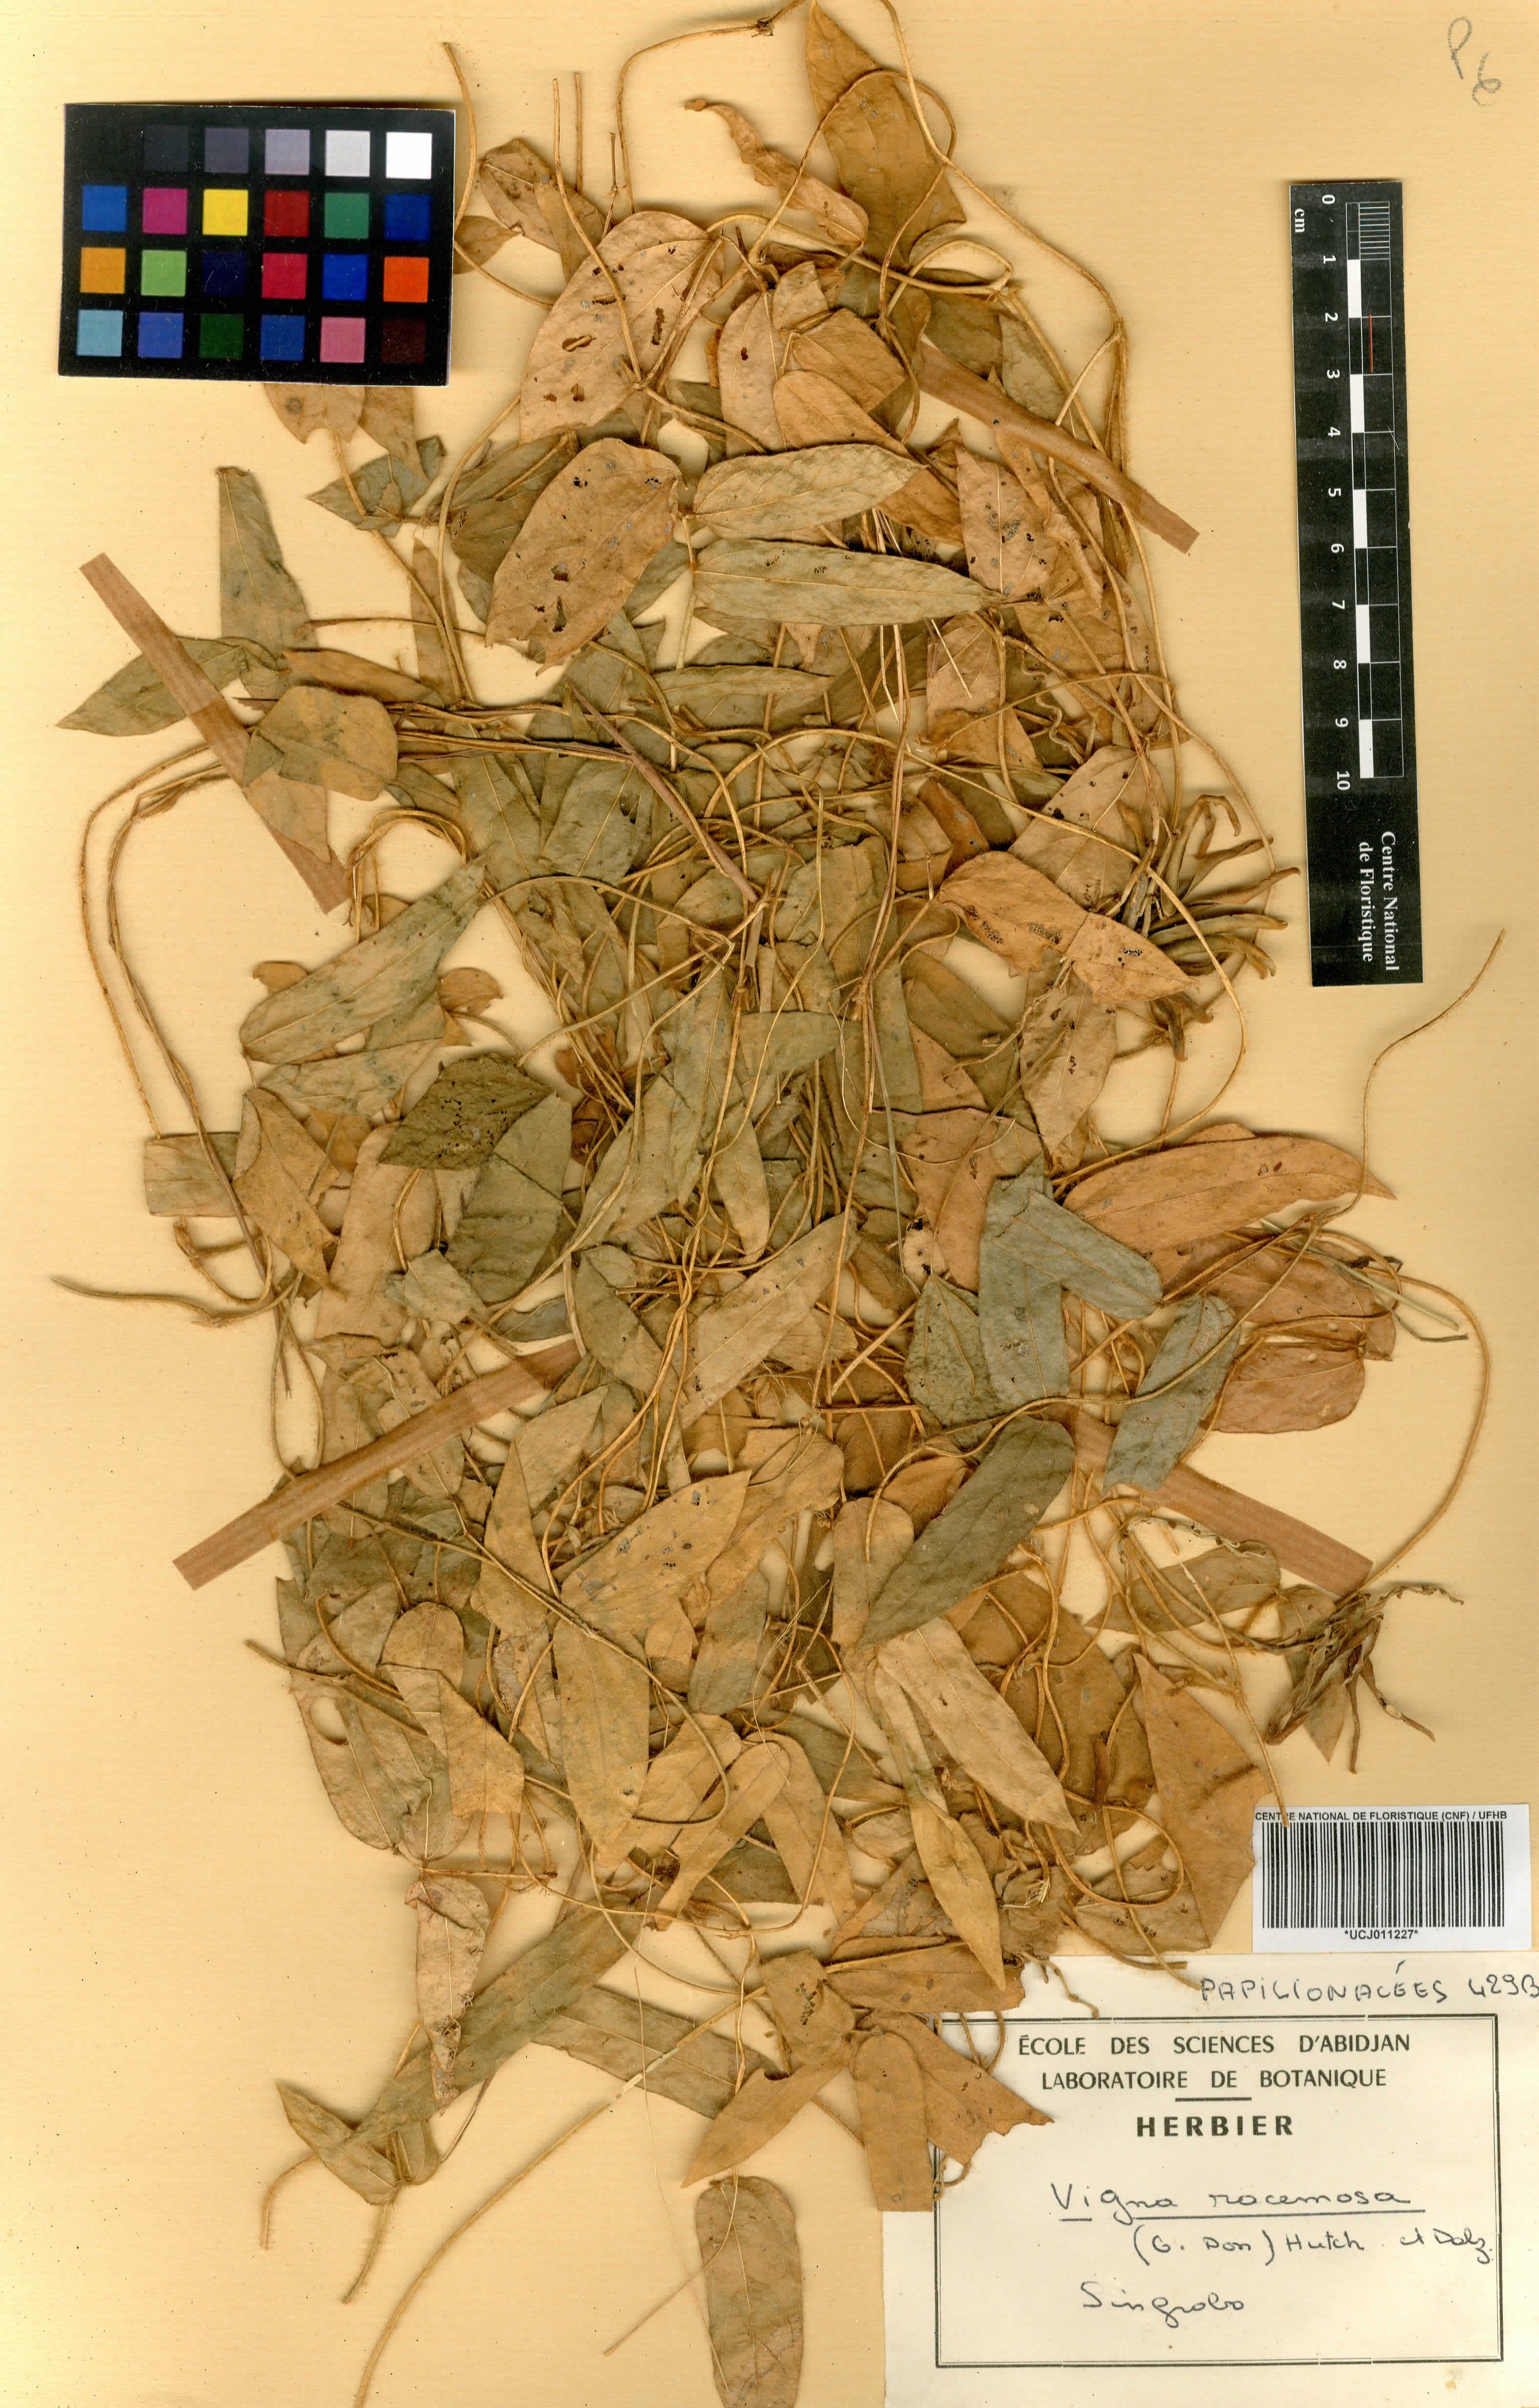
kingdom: Plantae
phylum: Tracheophyta
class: Magnoliopsida
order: Fabales
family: Fabaceae
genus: Vigna
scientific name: Vigna racemosa
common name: Beans not eaten
